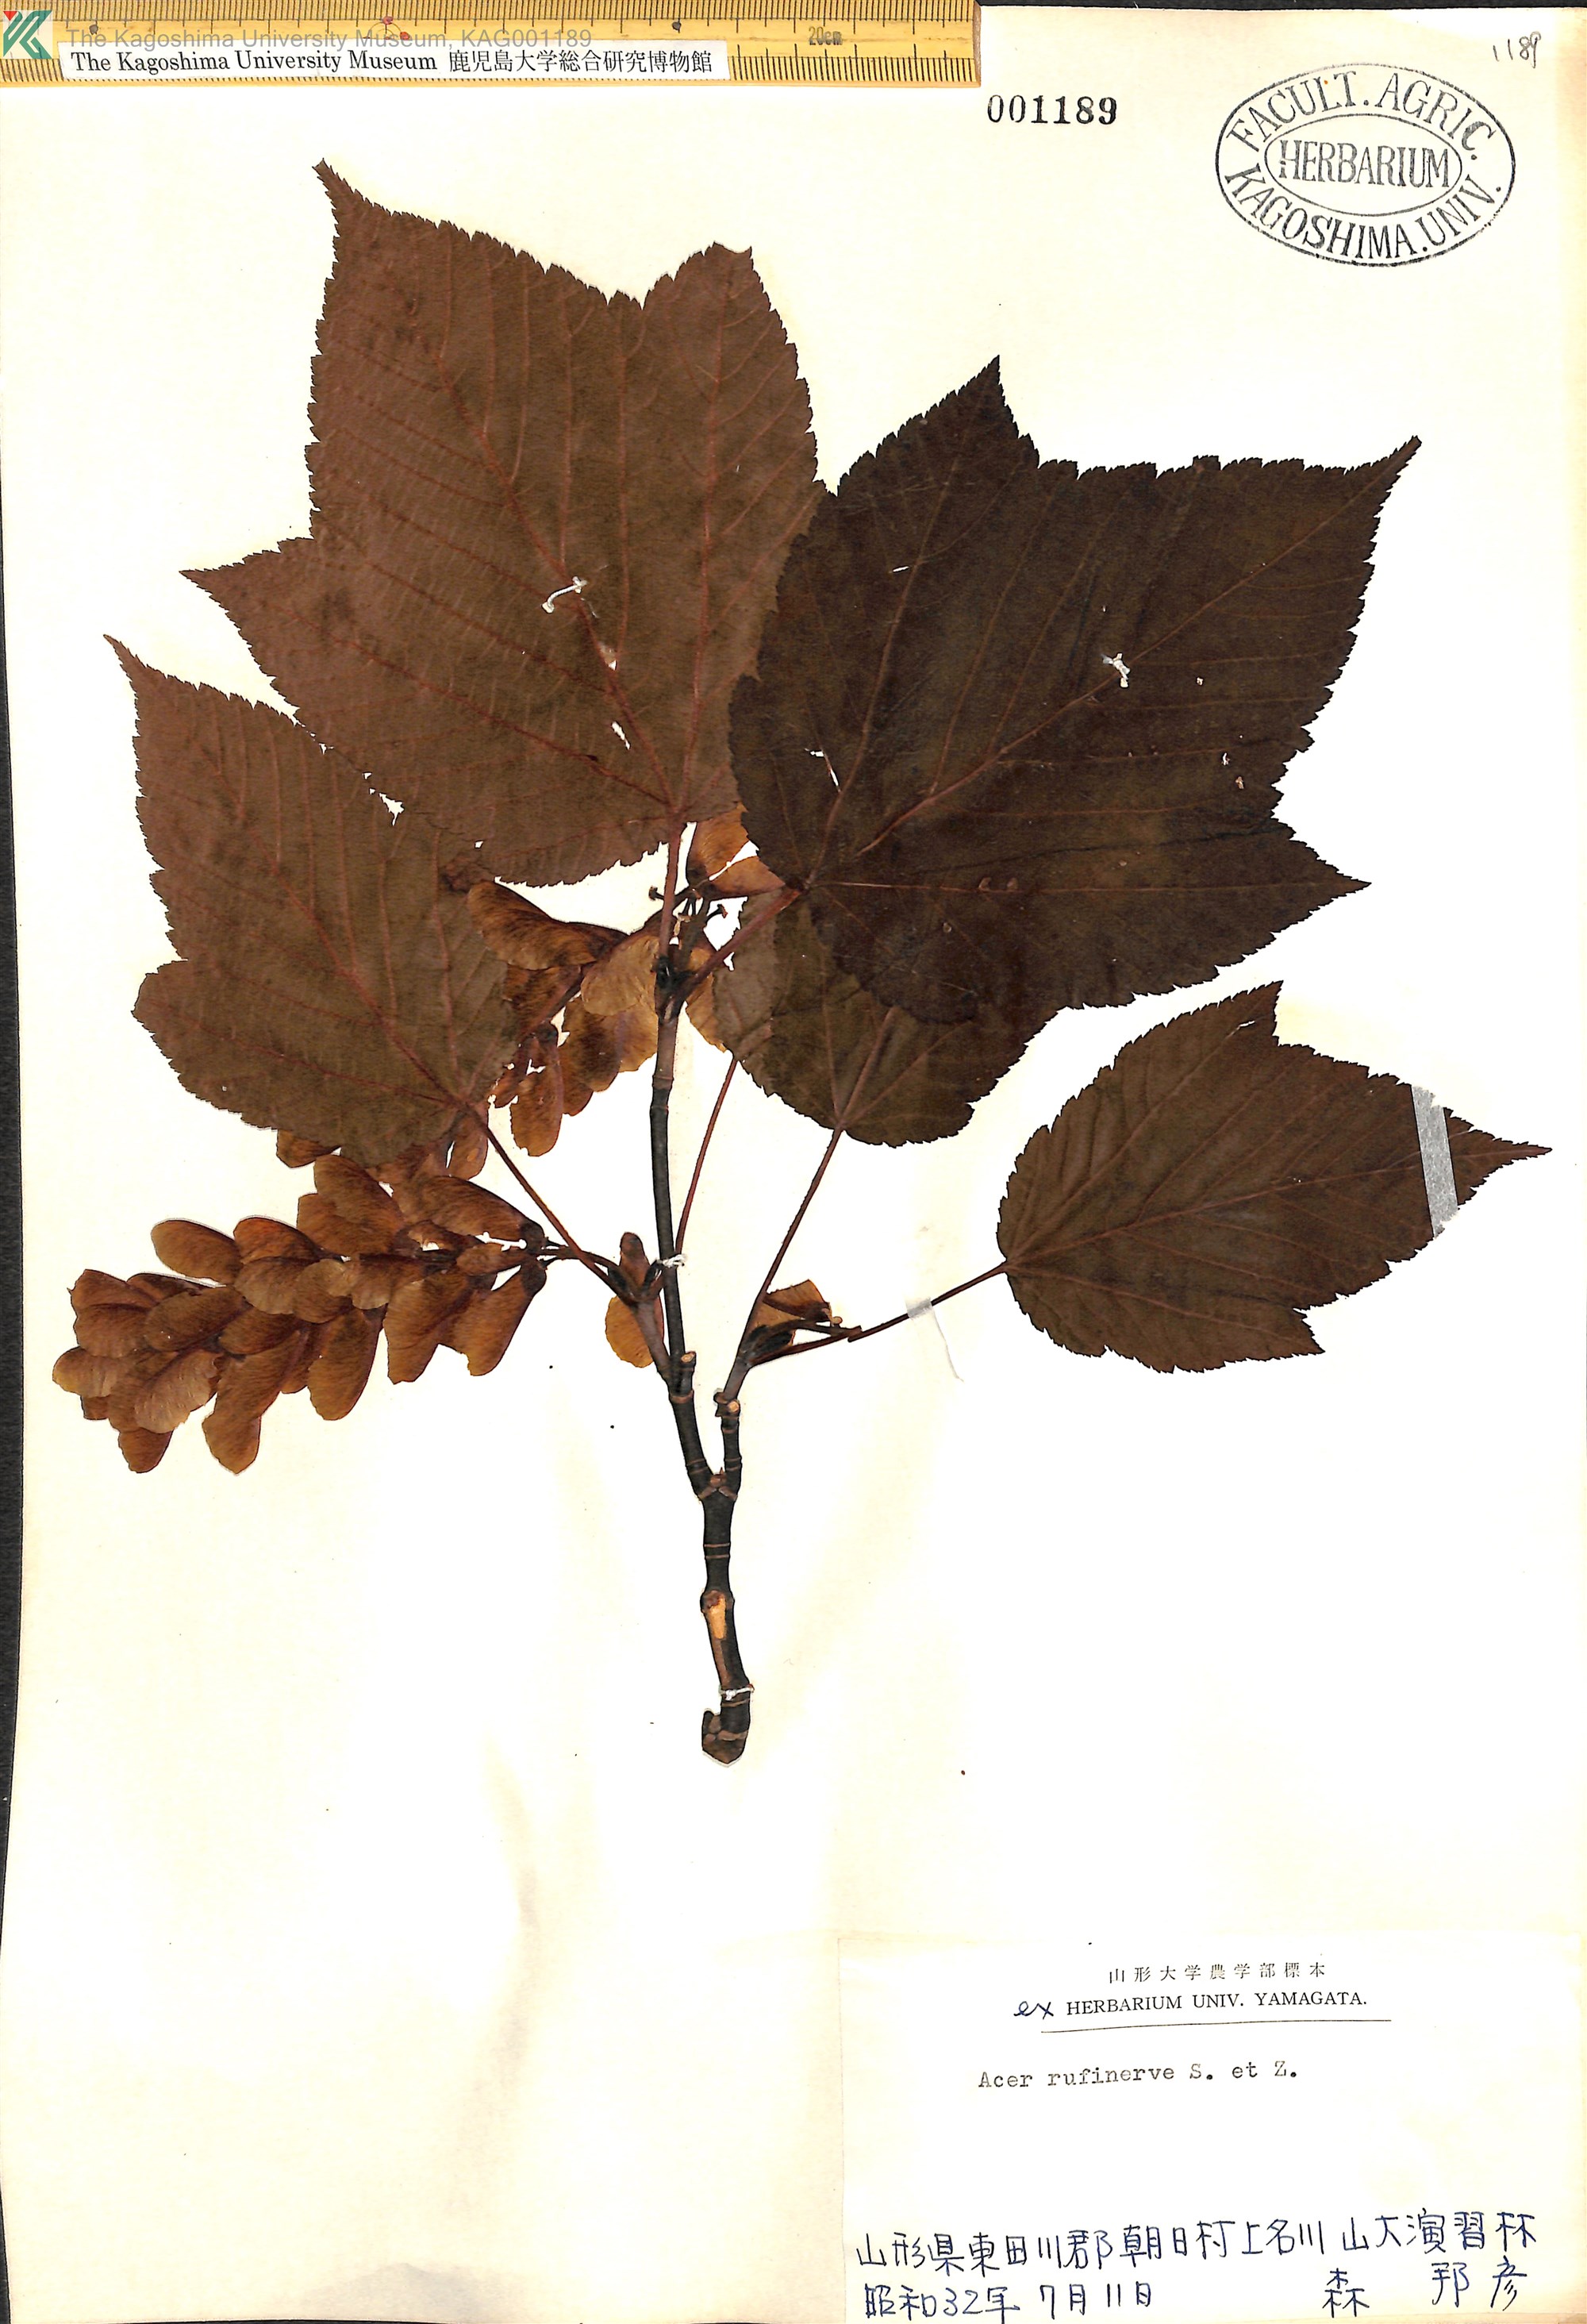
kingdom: Plantae
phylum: Tracheophyta
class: Magnoliopsida
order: Sapindales
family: Sapindaceae
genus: Acer
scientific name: Acer rufinerve
